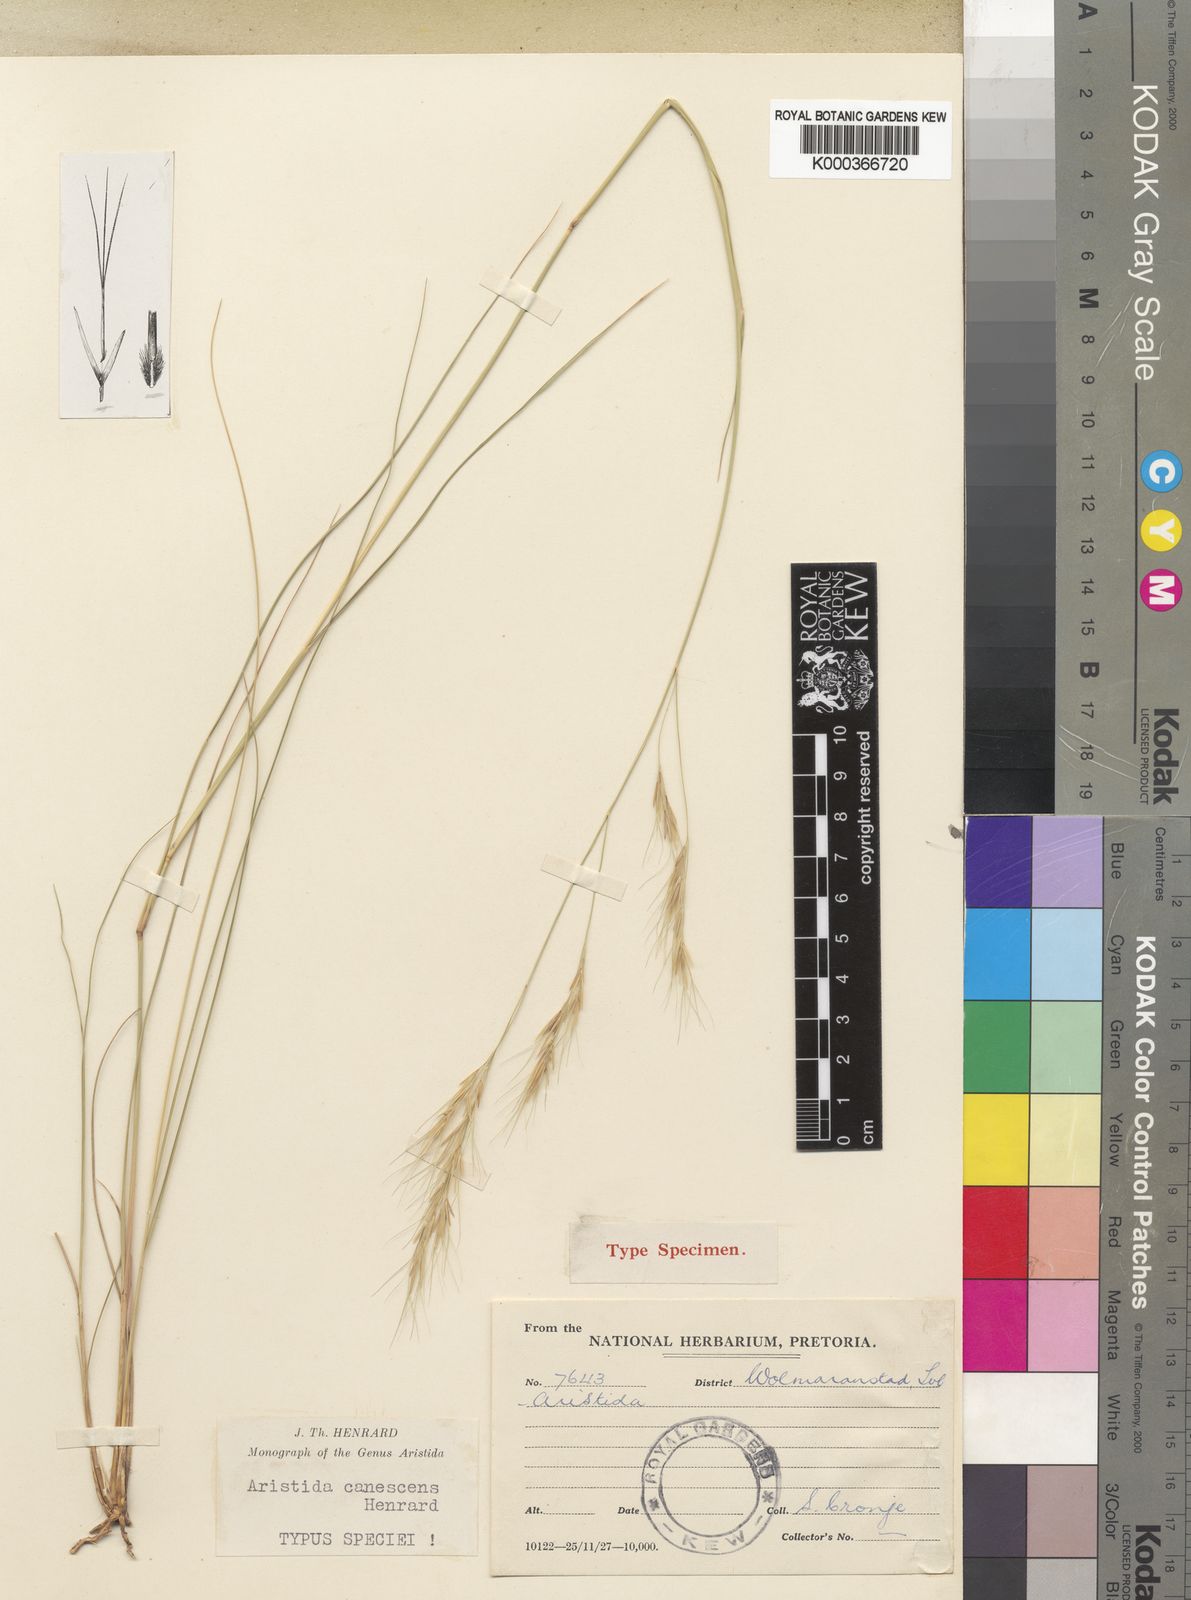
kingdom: Plantae
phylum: Tracheophyta
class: Liliopsida
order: Poales
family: Poaceae
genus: Aristida
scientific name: Aristida nemorivaga
